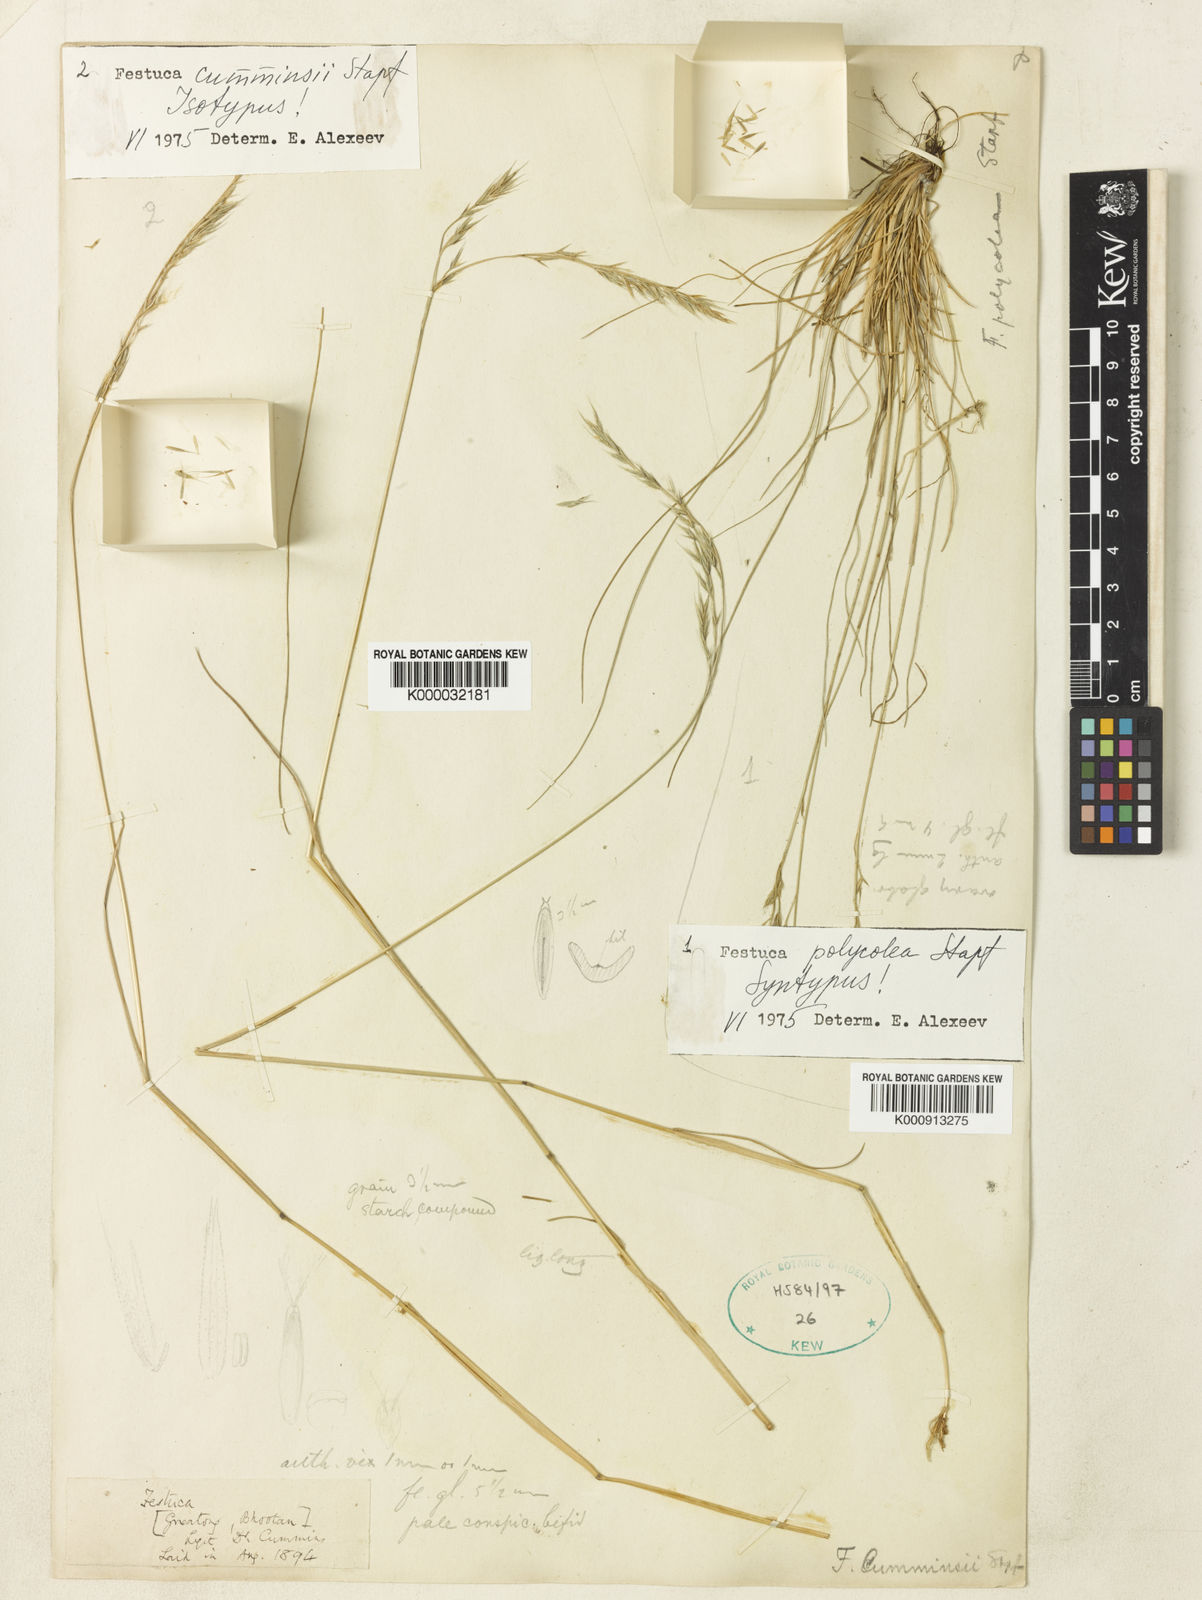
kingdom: Plantae
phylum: Tracheophyta
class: Liliopsida
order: Poales
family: Poaceae
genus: Festuca
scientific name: Festuca cumminsii
